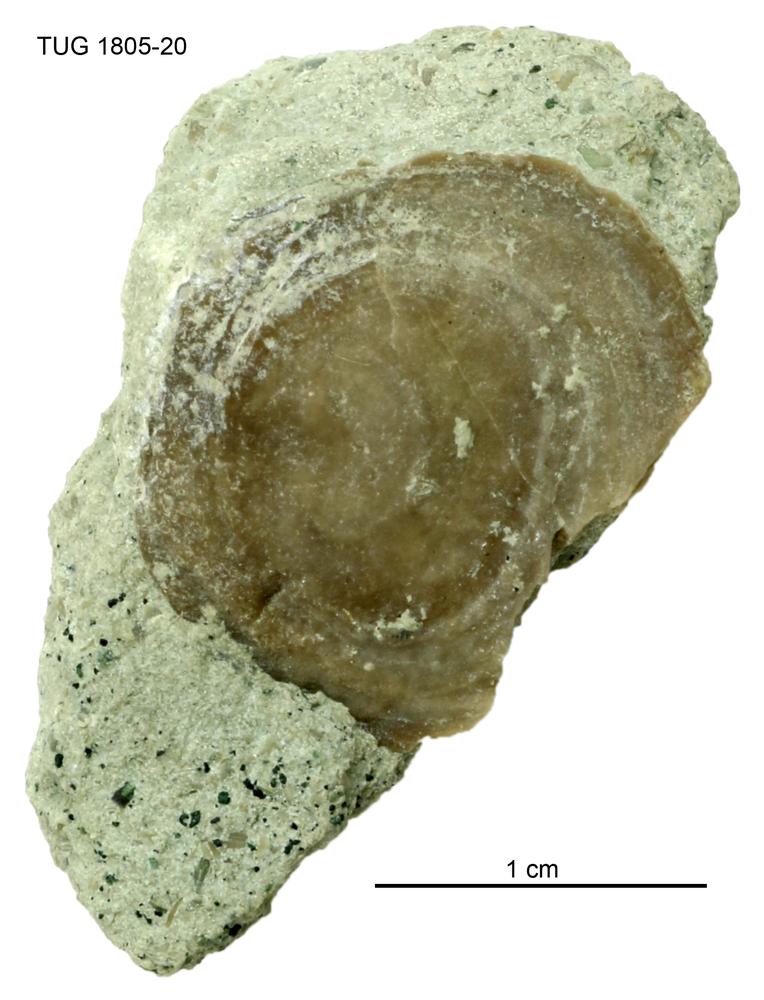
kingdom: Animalia
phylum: Mollusca
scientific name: Mollusca
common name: Mollusca
